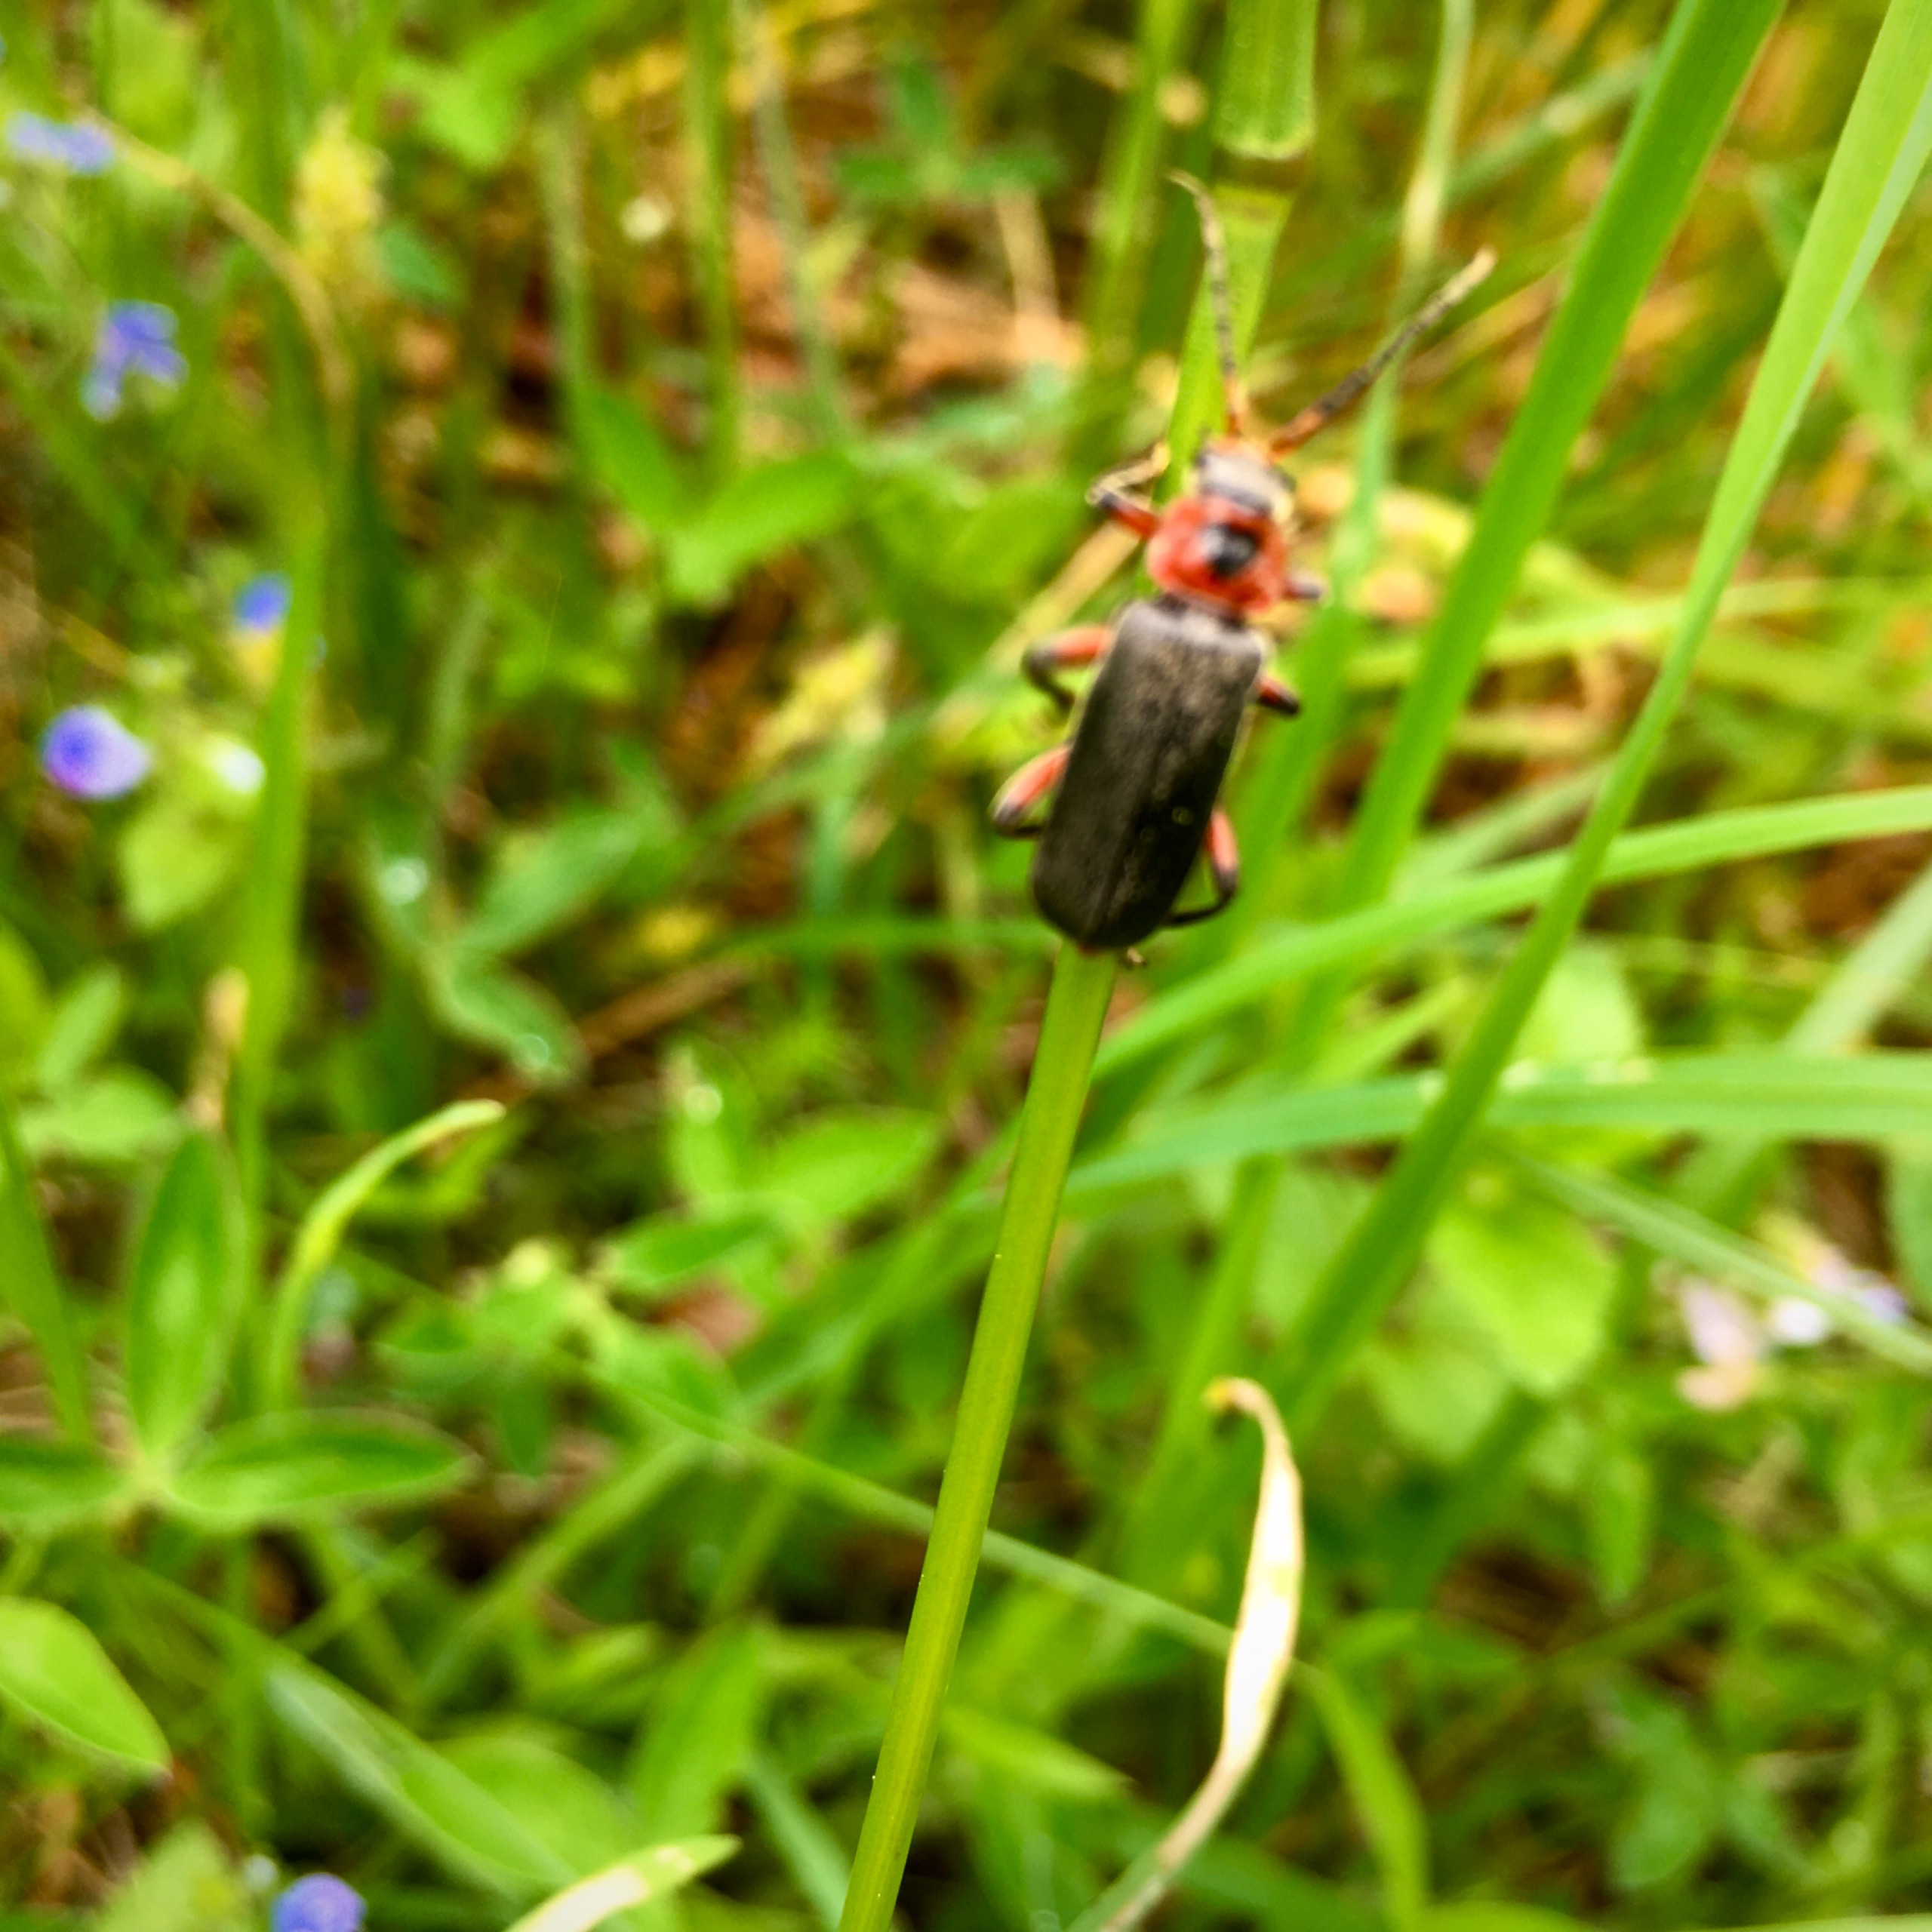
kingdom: Animalia
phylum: Arthropoda
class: Insecta
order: Coleoptera
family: Cantharidae
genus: Cantharis
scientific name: Cantharis rustica
